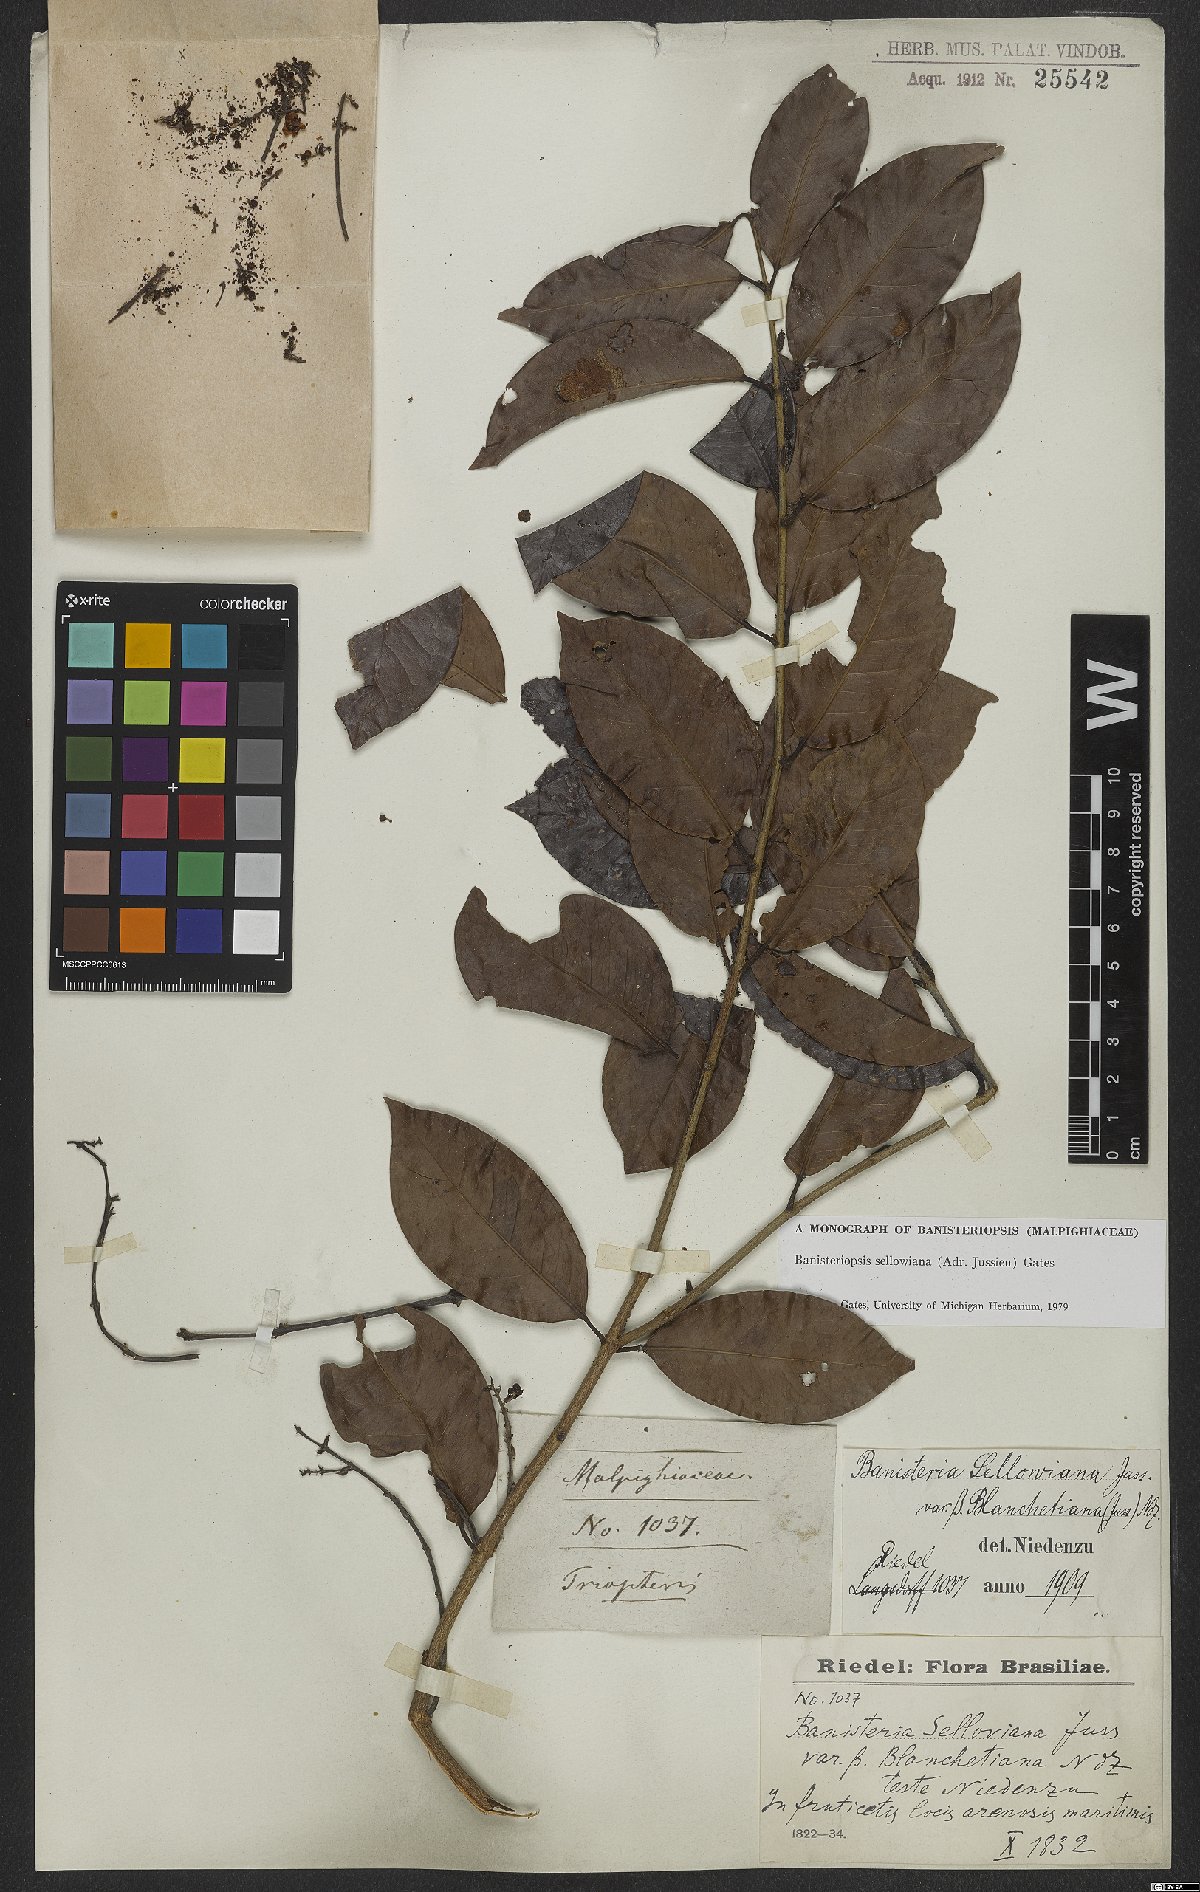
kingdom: Plantae
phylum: Tracheophyta
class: Magnoliopsida
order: Malpighiales
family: Malpighiaceae
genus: Banisteriopsis
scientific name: Banisteriopsis sellowiana
